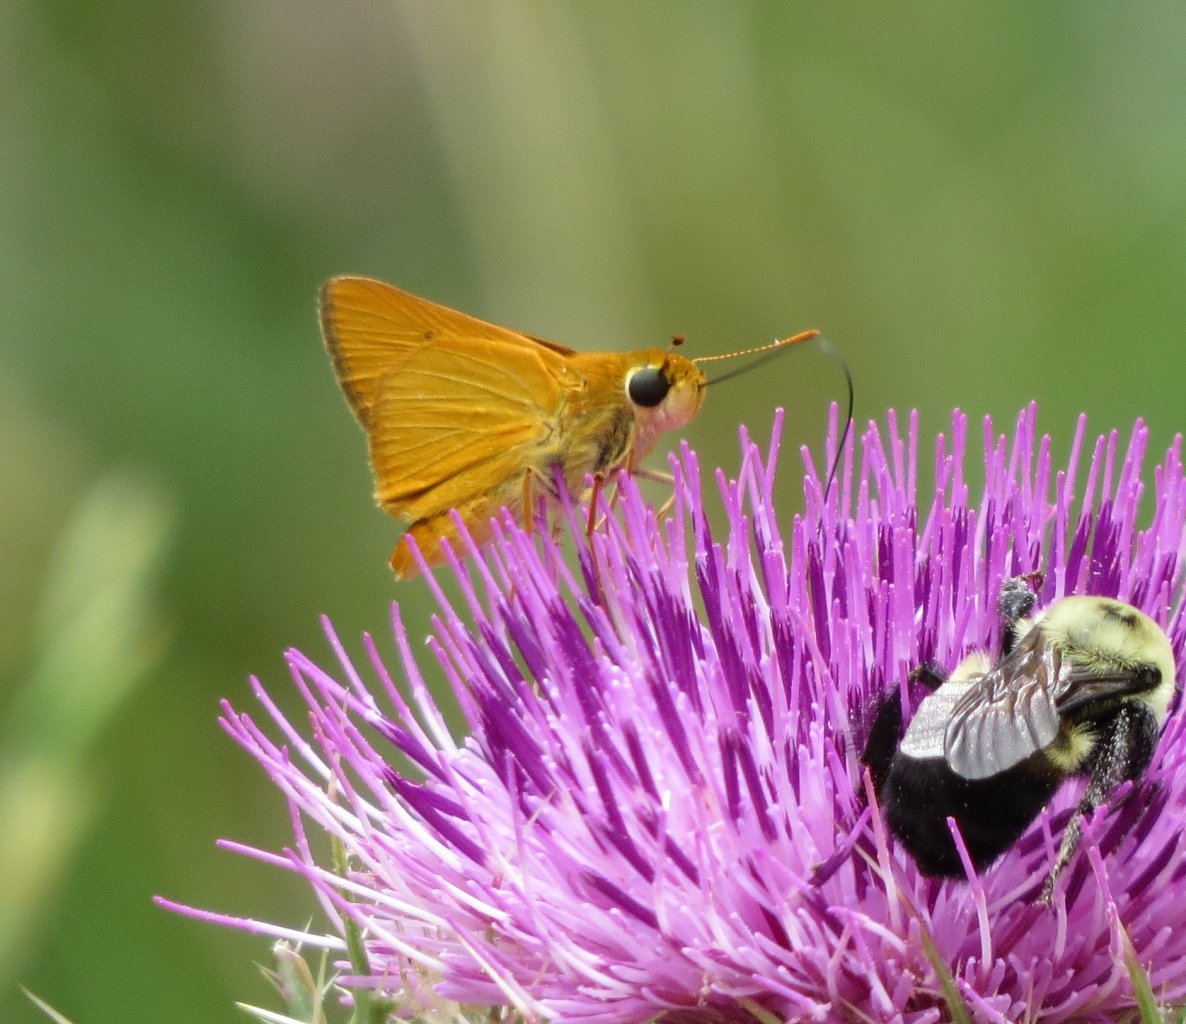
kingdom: Animalia
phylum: Arthropoda
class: Insecta
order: Lepidoptera
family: Hesperiidae
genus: Atrytone
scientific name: Atrytone delaware
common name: Delaware Skipper
